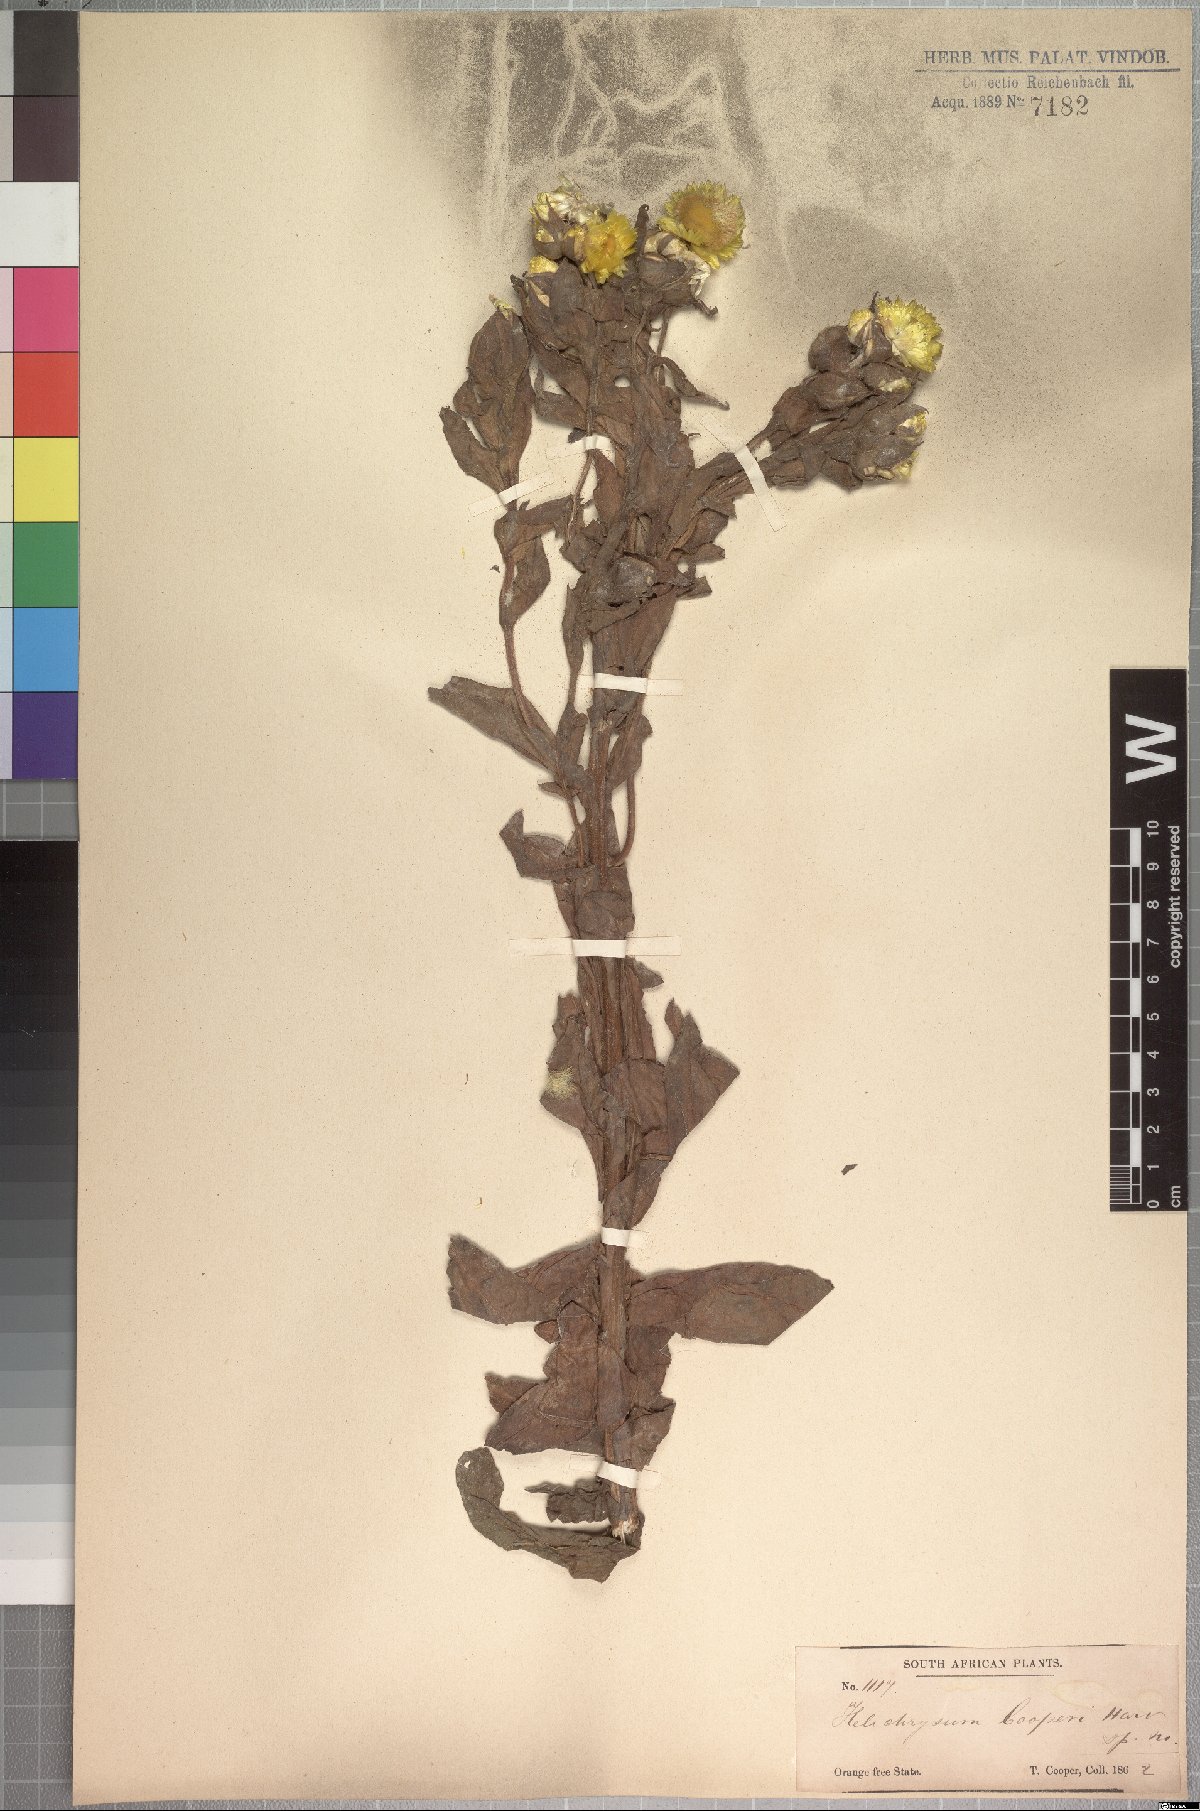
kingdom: Plantae
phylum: Tracheophyta
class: Magnoliopsida
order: Asterales
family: Asteraceae
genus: Helichrysum
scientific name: Helichrysum cooperi
